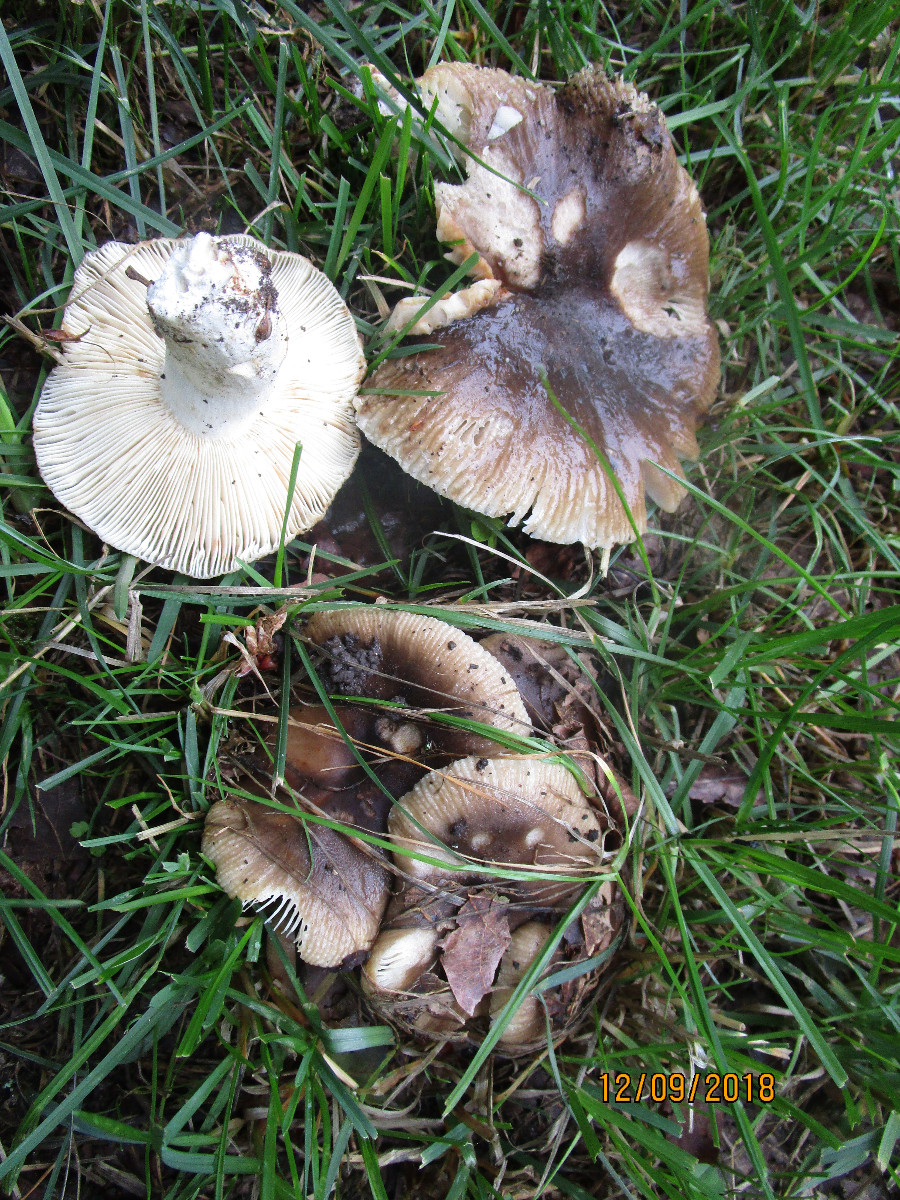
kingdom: Fungi
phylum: Basidiomycota
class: Agaricomycetes
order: Russulales
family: Russulaceae
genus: Russula
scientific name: Russula sororia
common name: brun kam-skørhat
